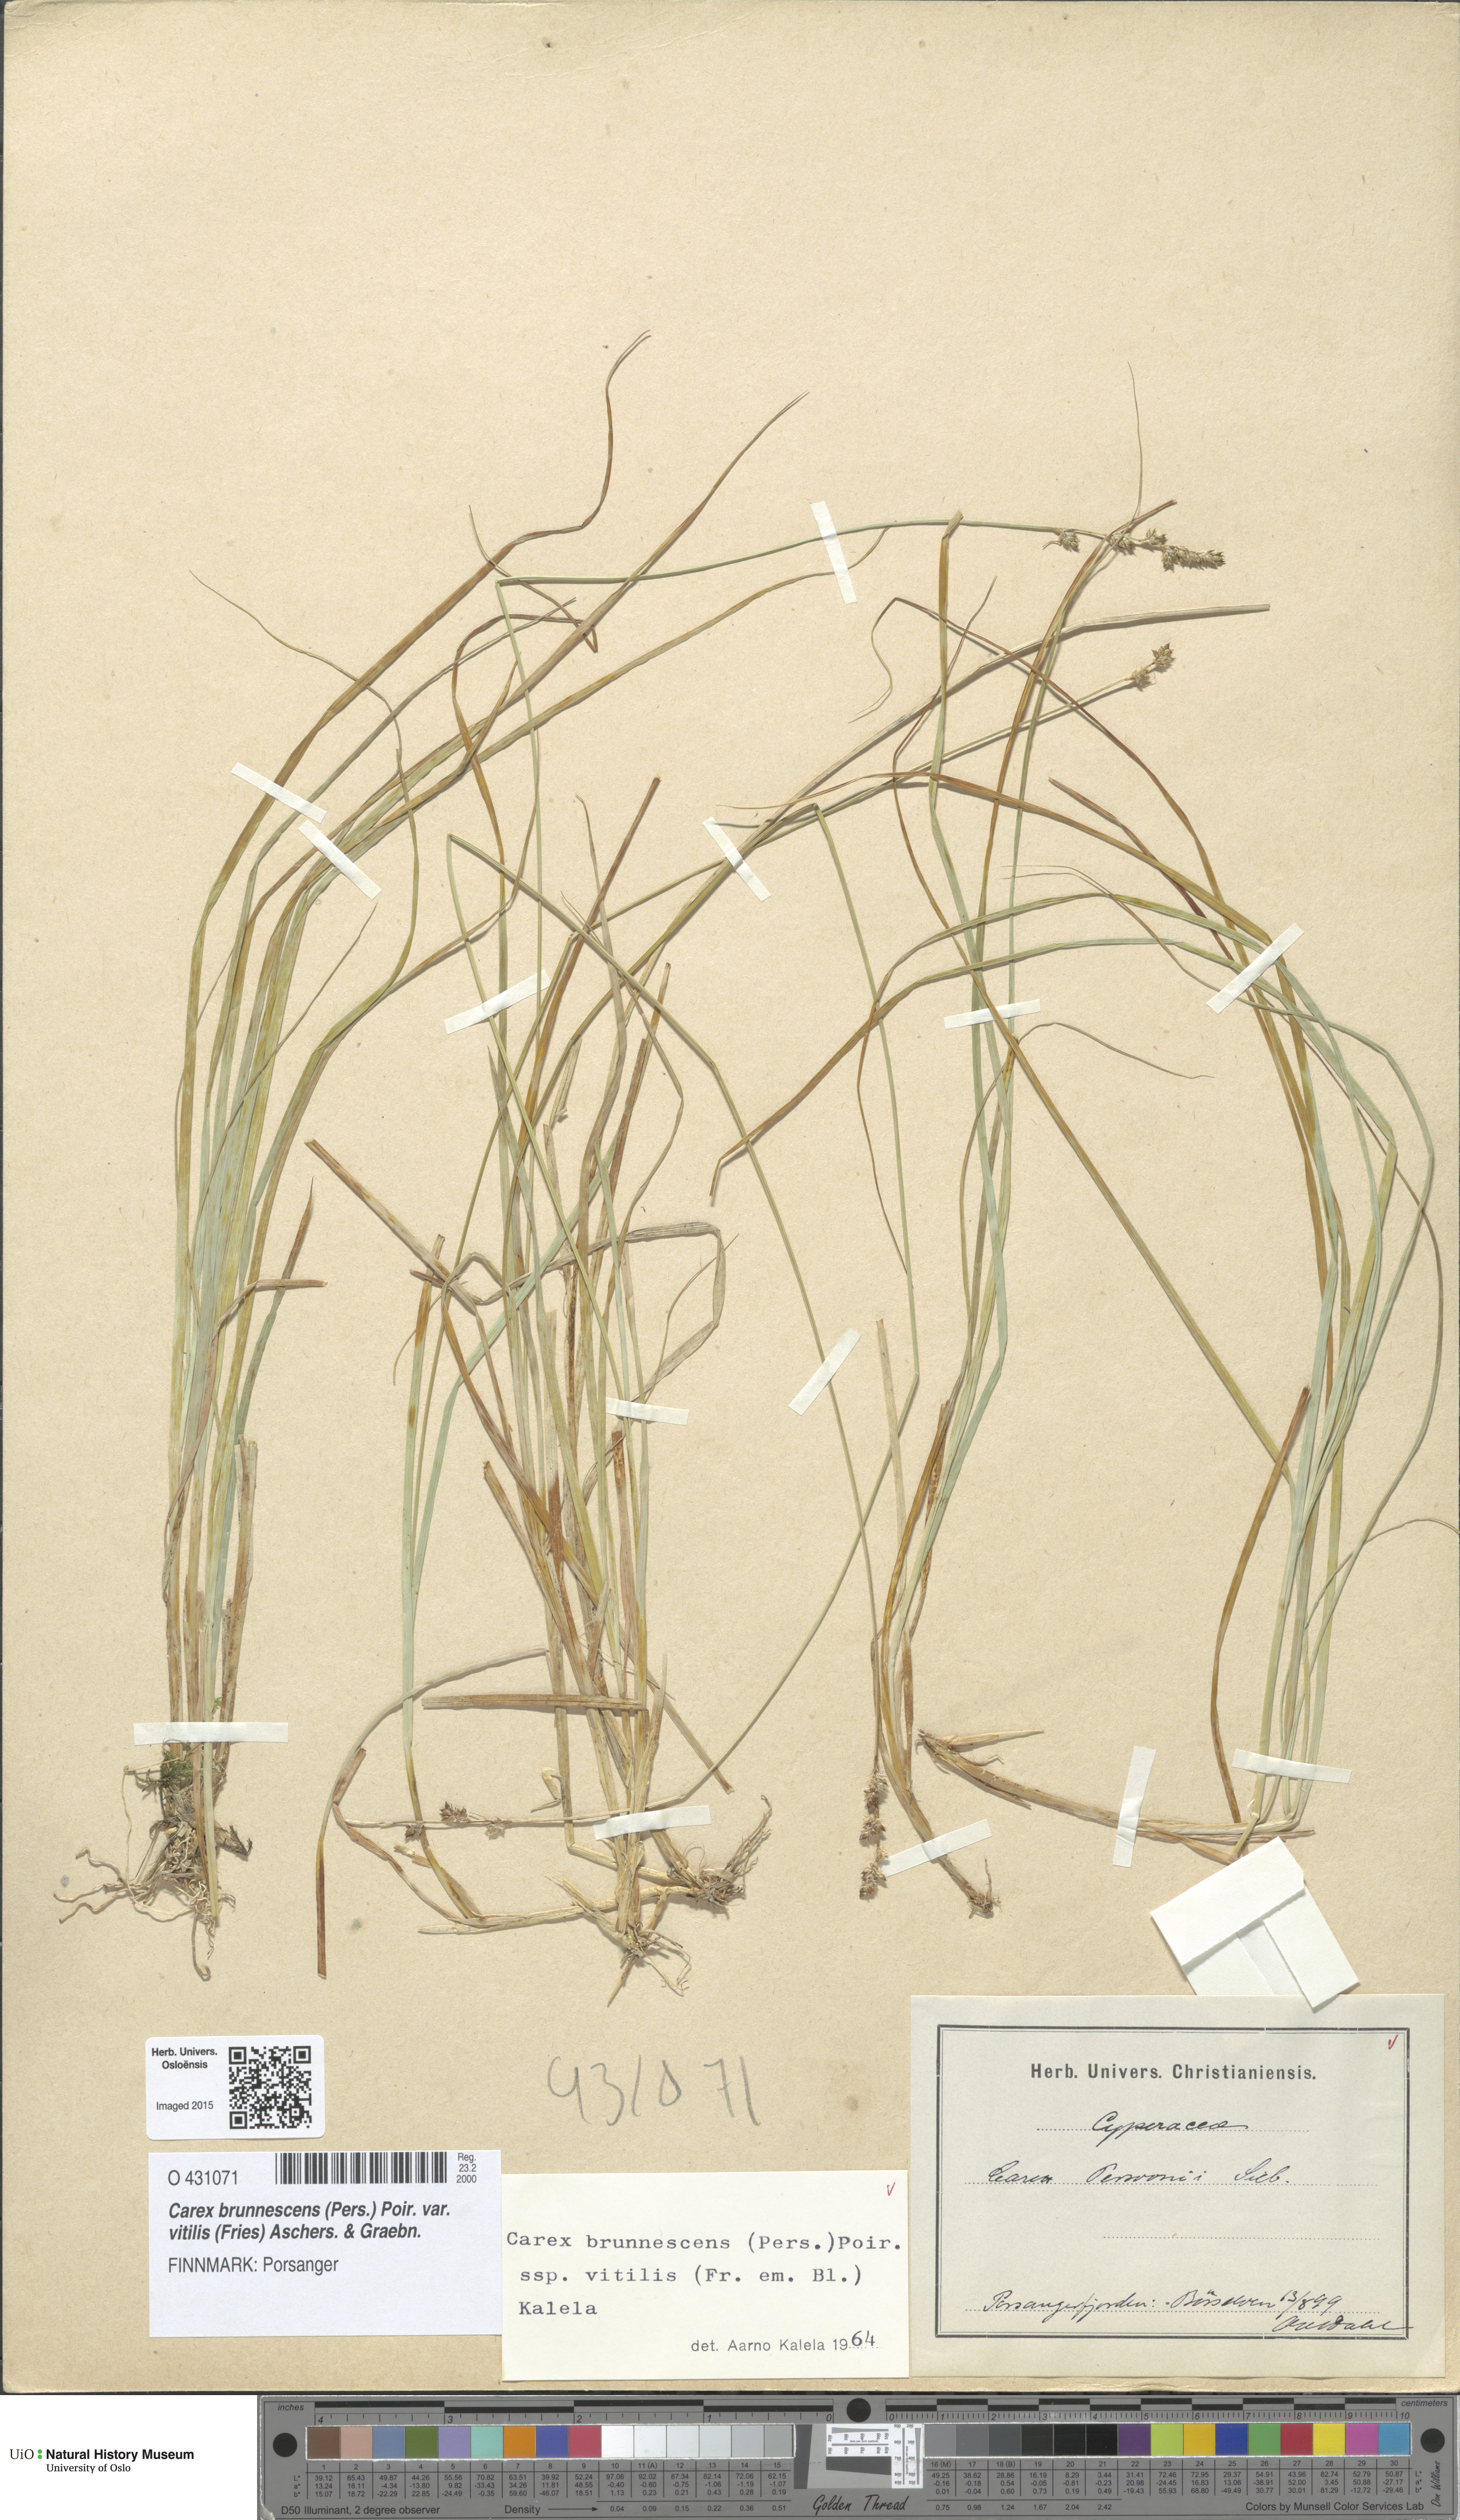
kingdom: Plantae
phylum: Tracheophyta
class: Liliopsida
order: Poales
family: Cyperaceae
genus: Carex
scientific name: Carex brunnescens
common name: Brown sedge
